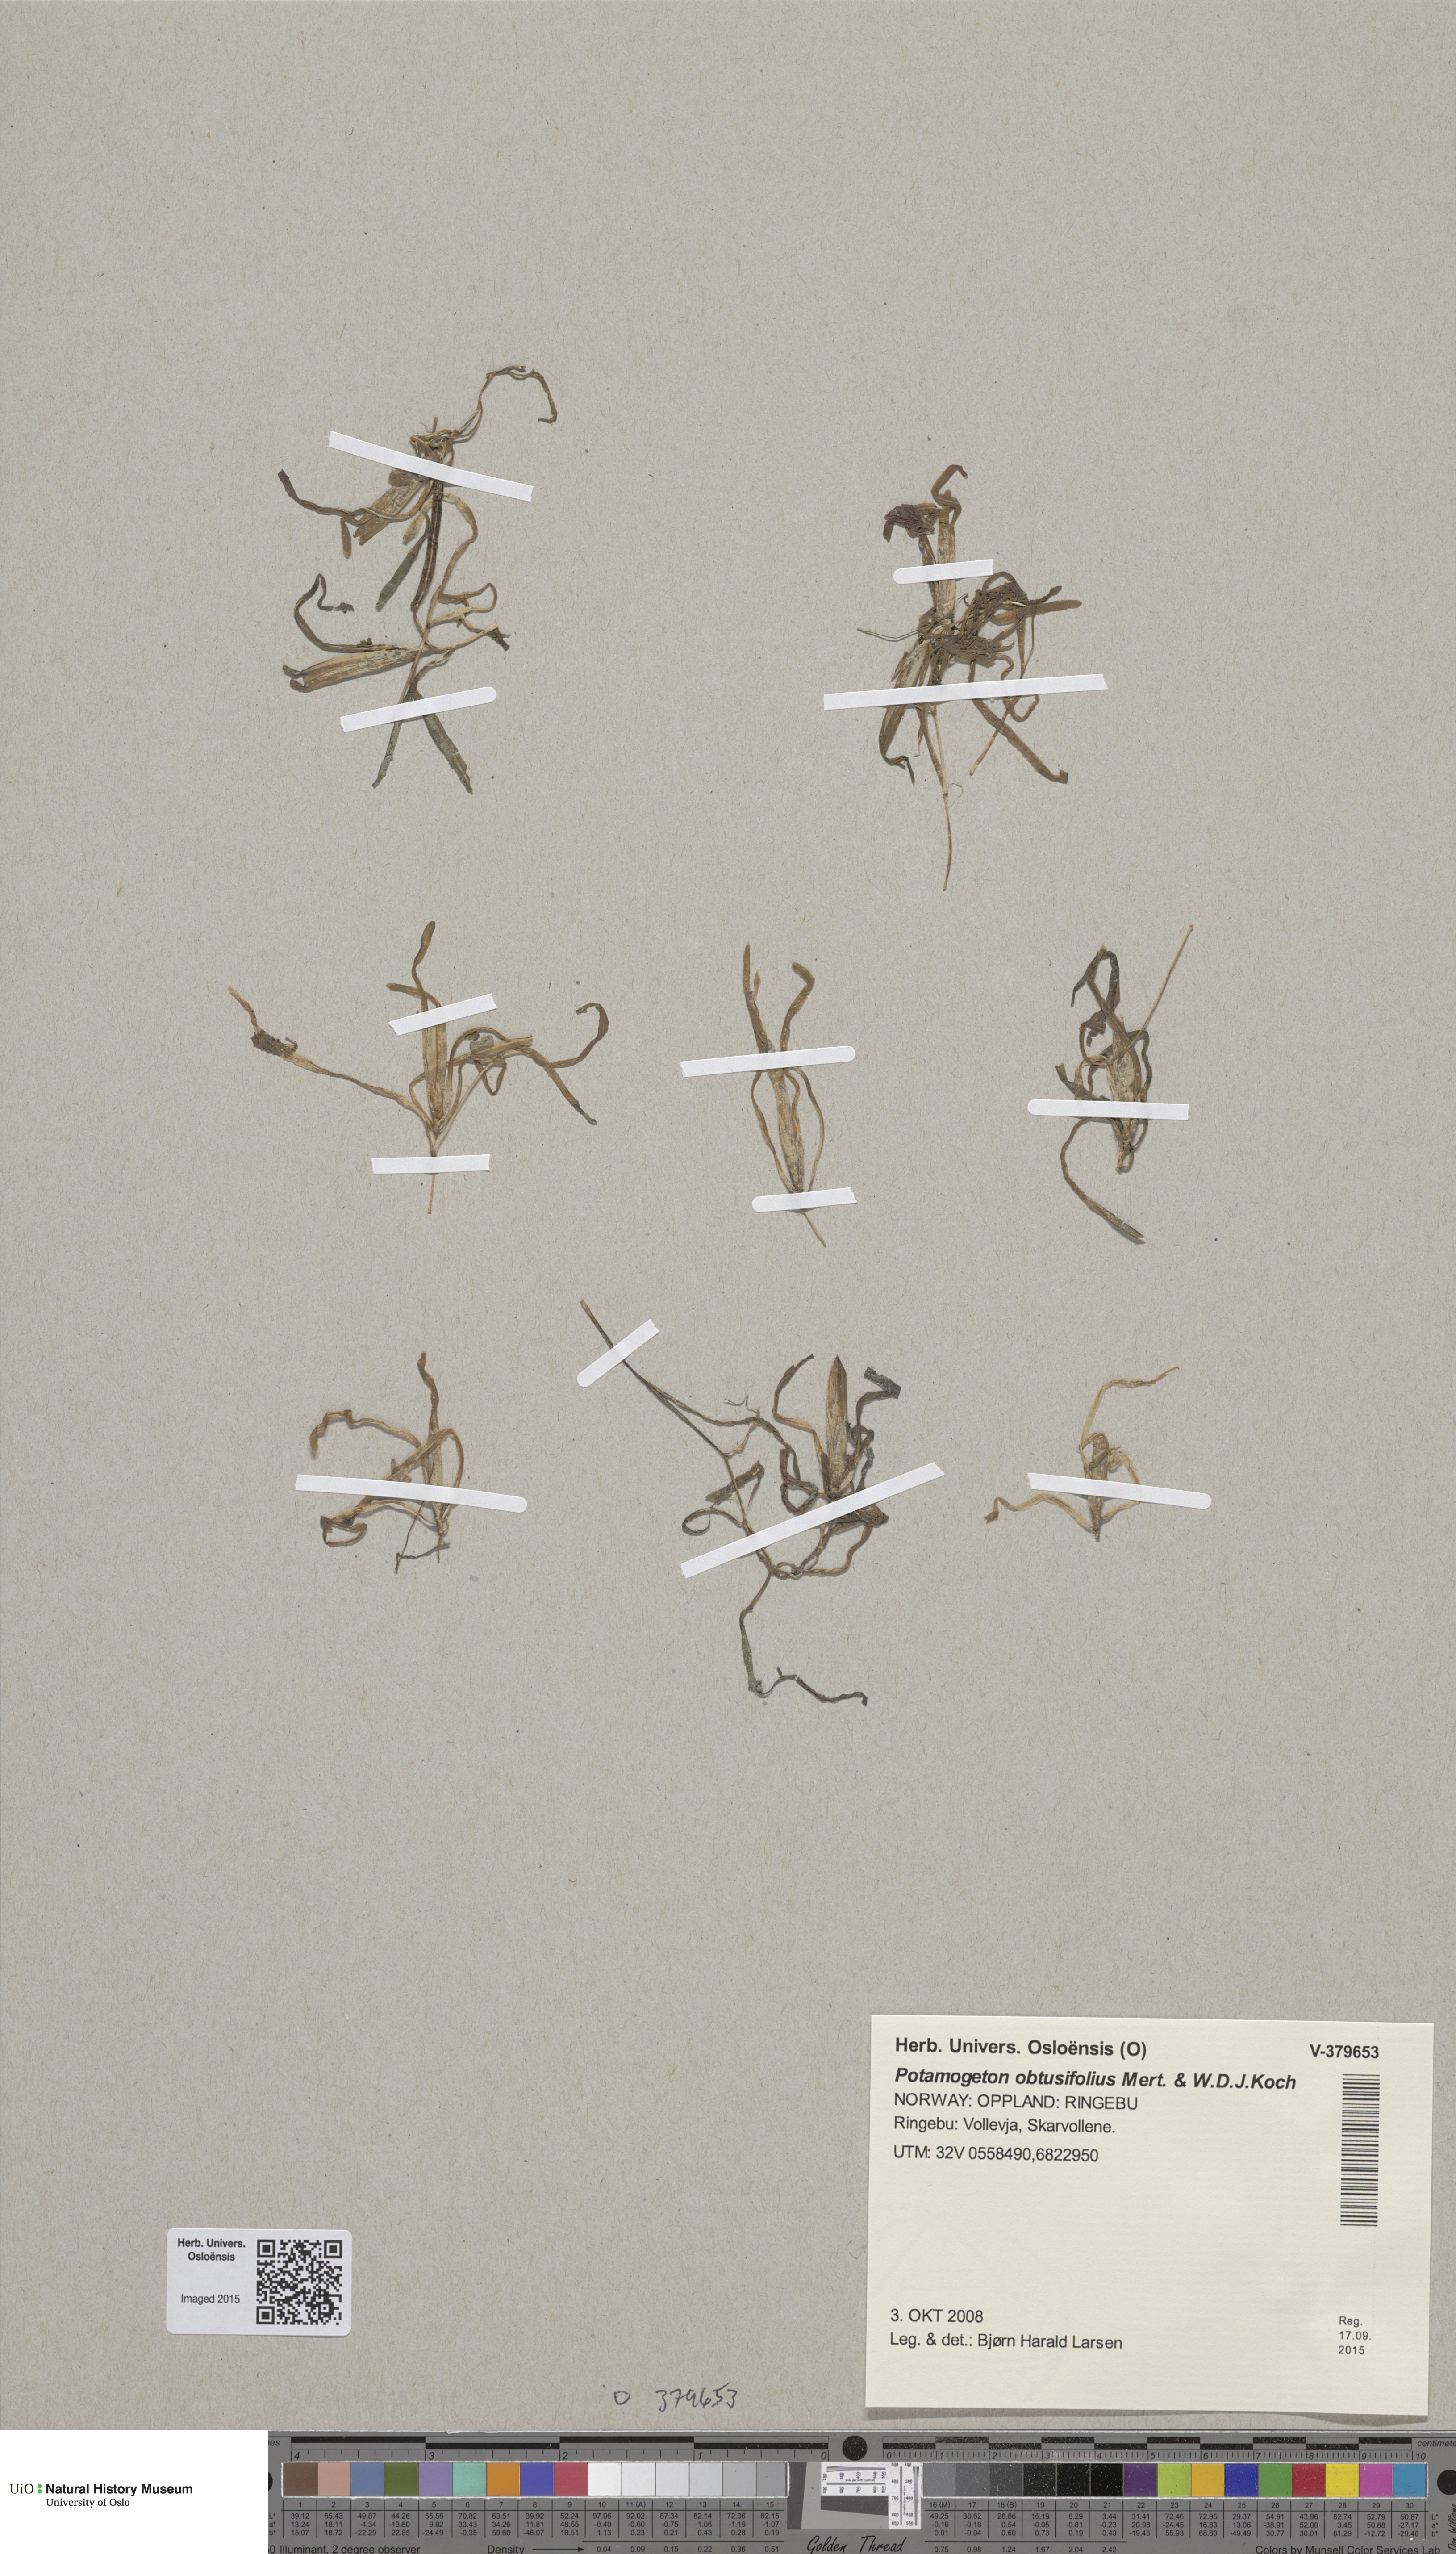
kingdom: Plantae
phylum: Tracheophyta
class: Liliopsida
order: Alismatales
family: Potamogetonaceae
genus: Potamogeton
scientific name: Potamogeton obtusifolius
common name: Blunt-leaved pondweed
